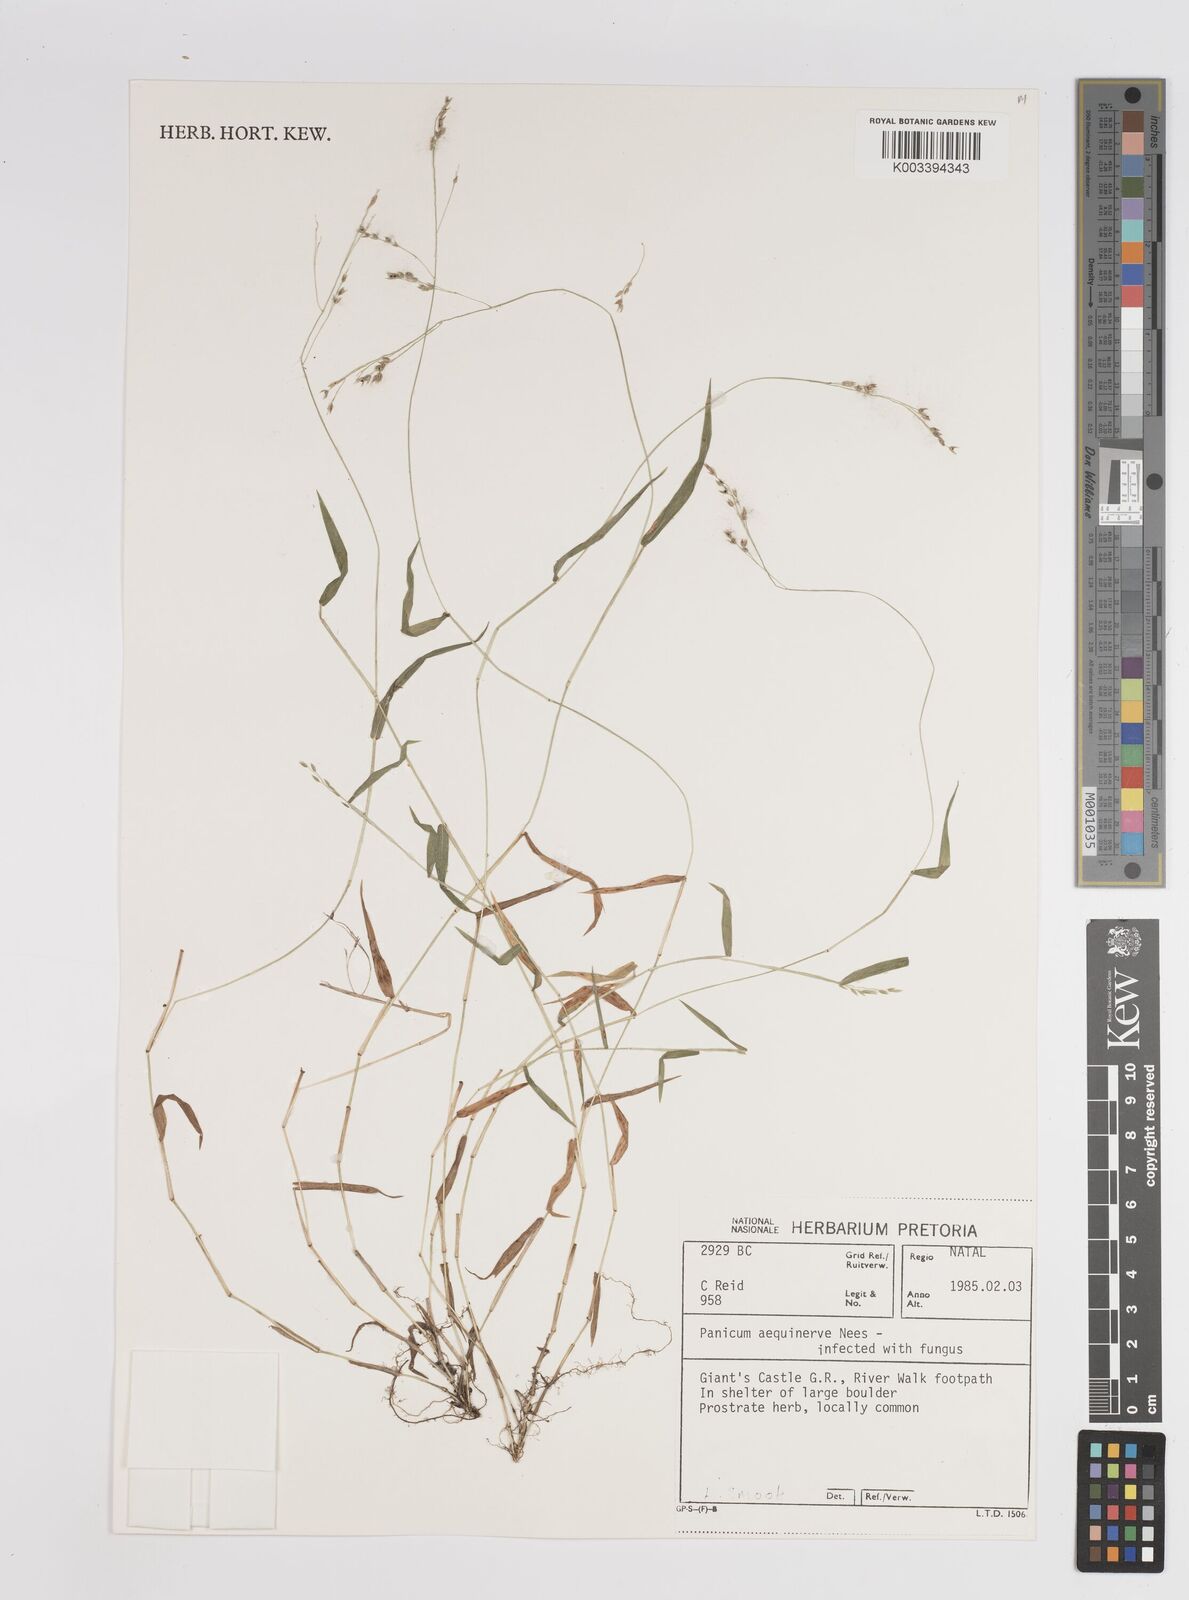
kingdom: Plantae
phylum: Tracheophyta
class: Liliopsida
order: Poales
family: Poaceae
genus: Panicum
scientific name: Panicum aequinerve
